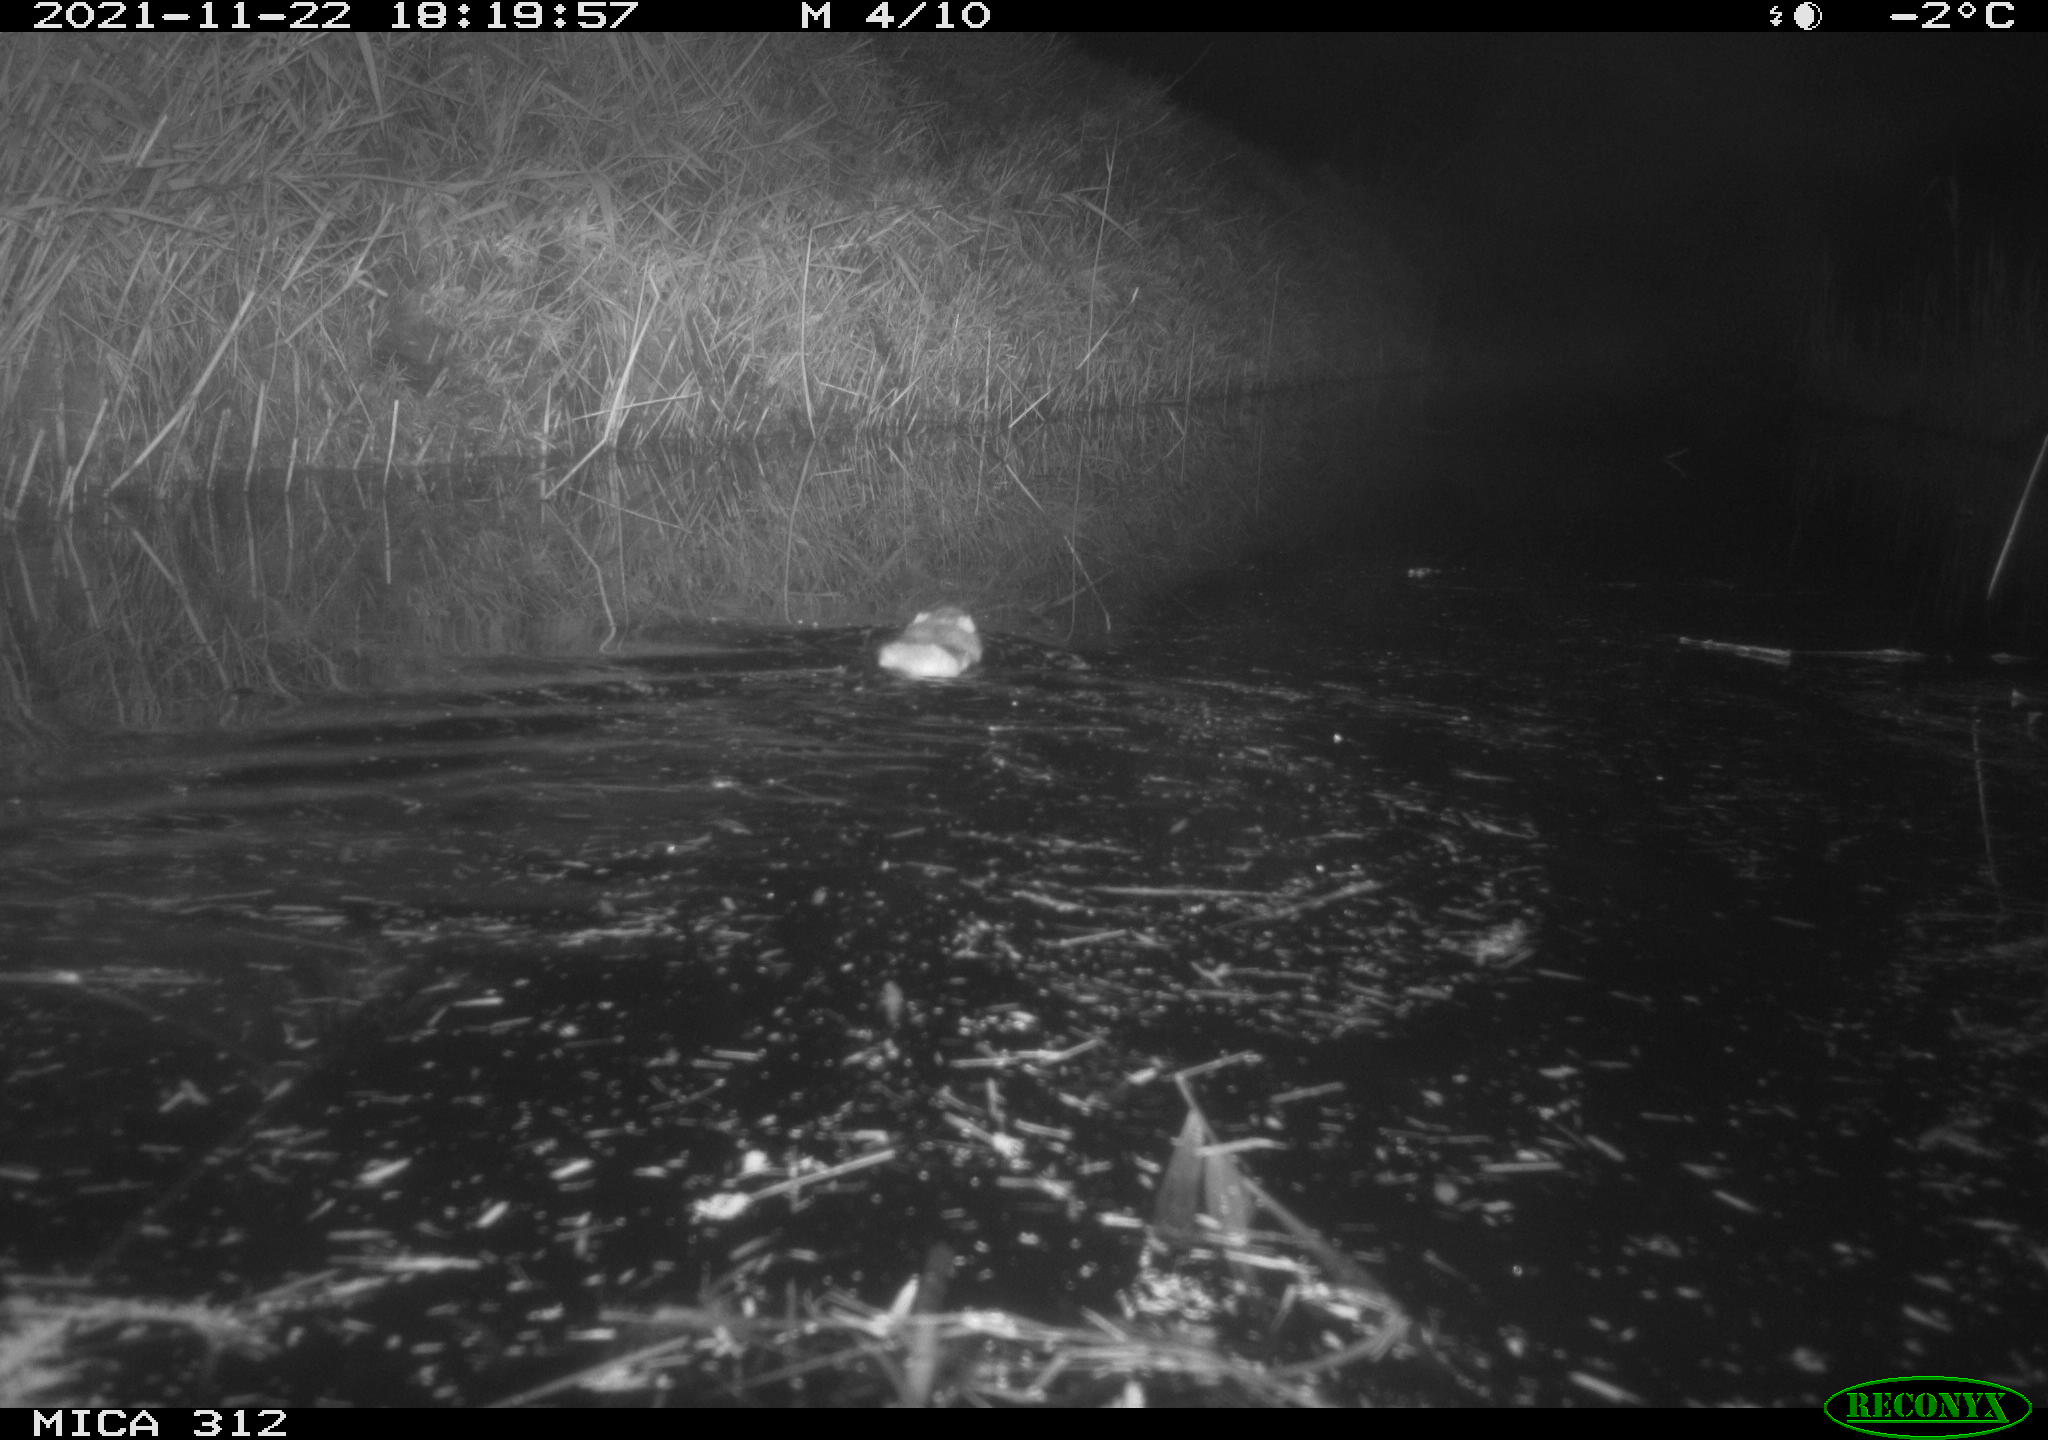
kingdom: Animalia
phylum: Chordata
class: Mammalia
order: Rodentia
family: Muridae
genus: Rattus
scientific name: Rattus norvegicus
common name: Brown rat
